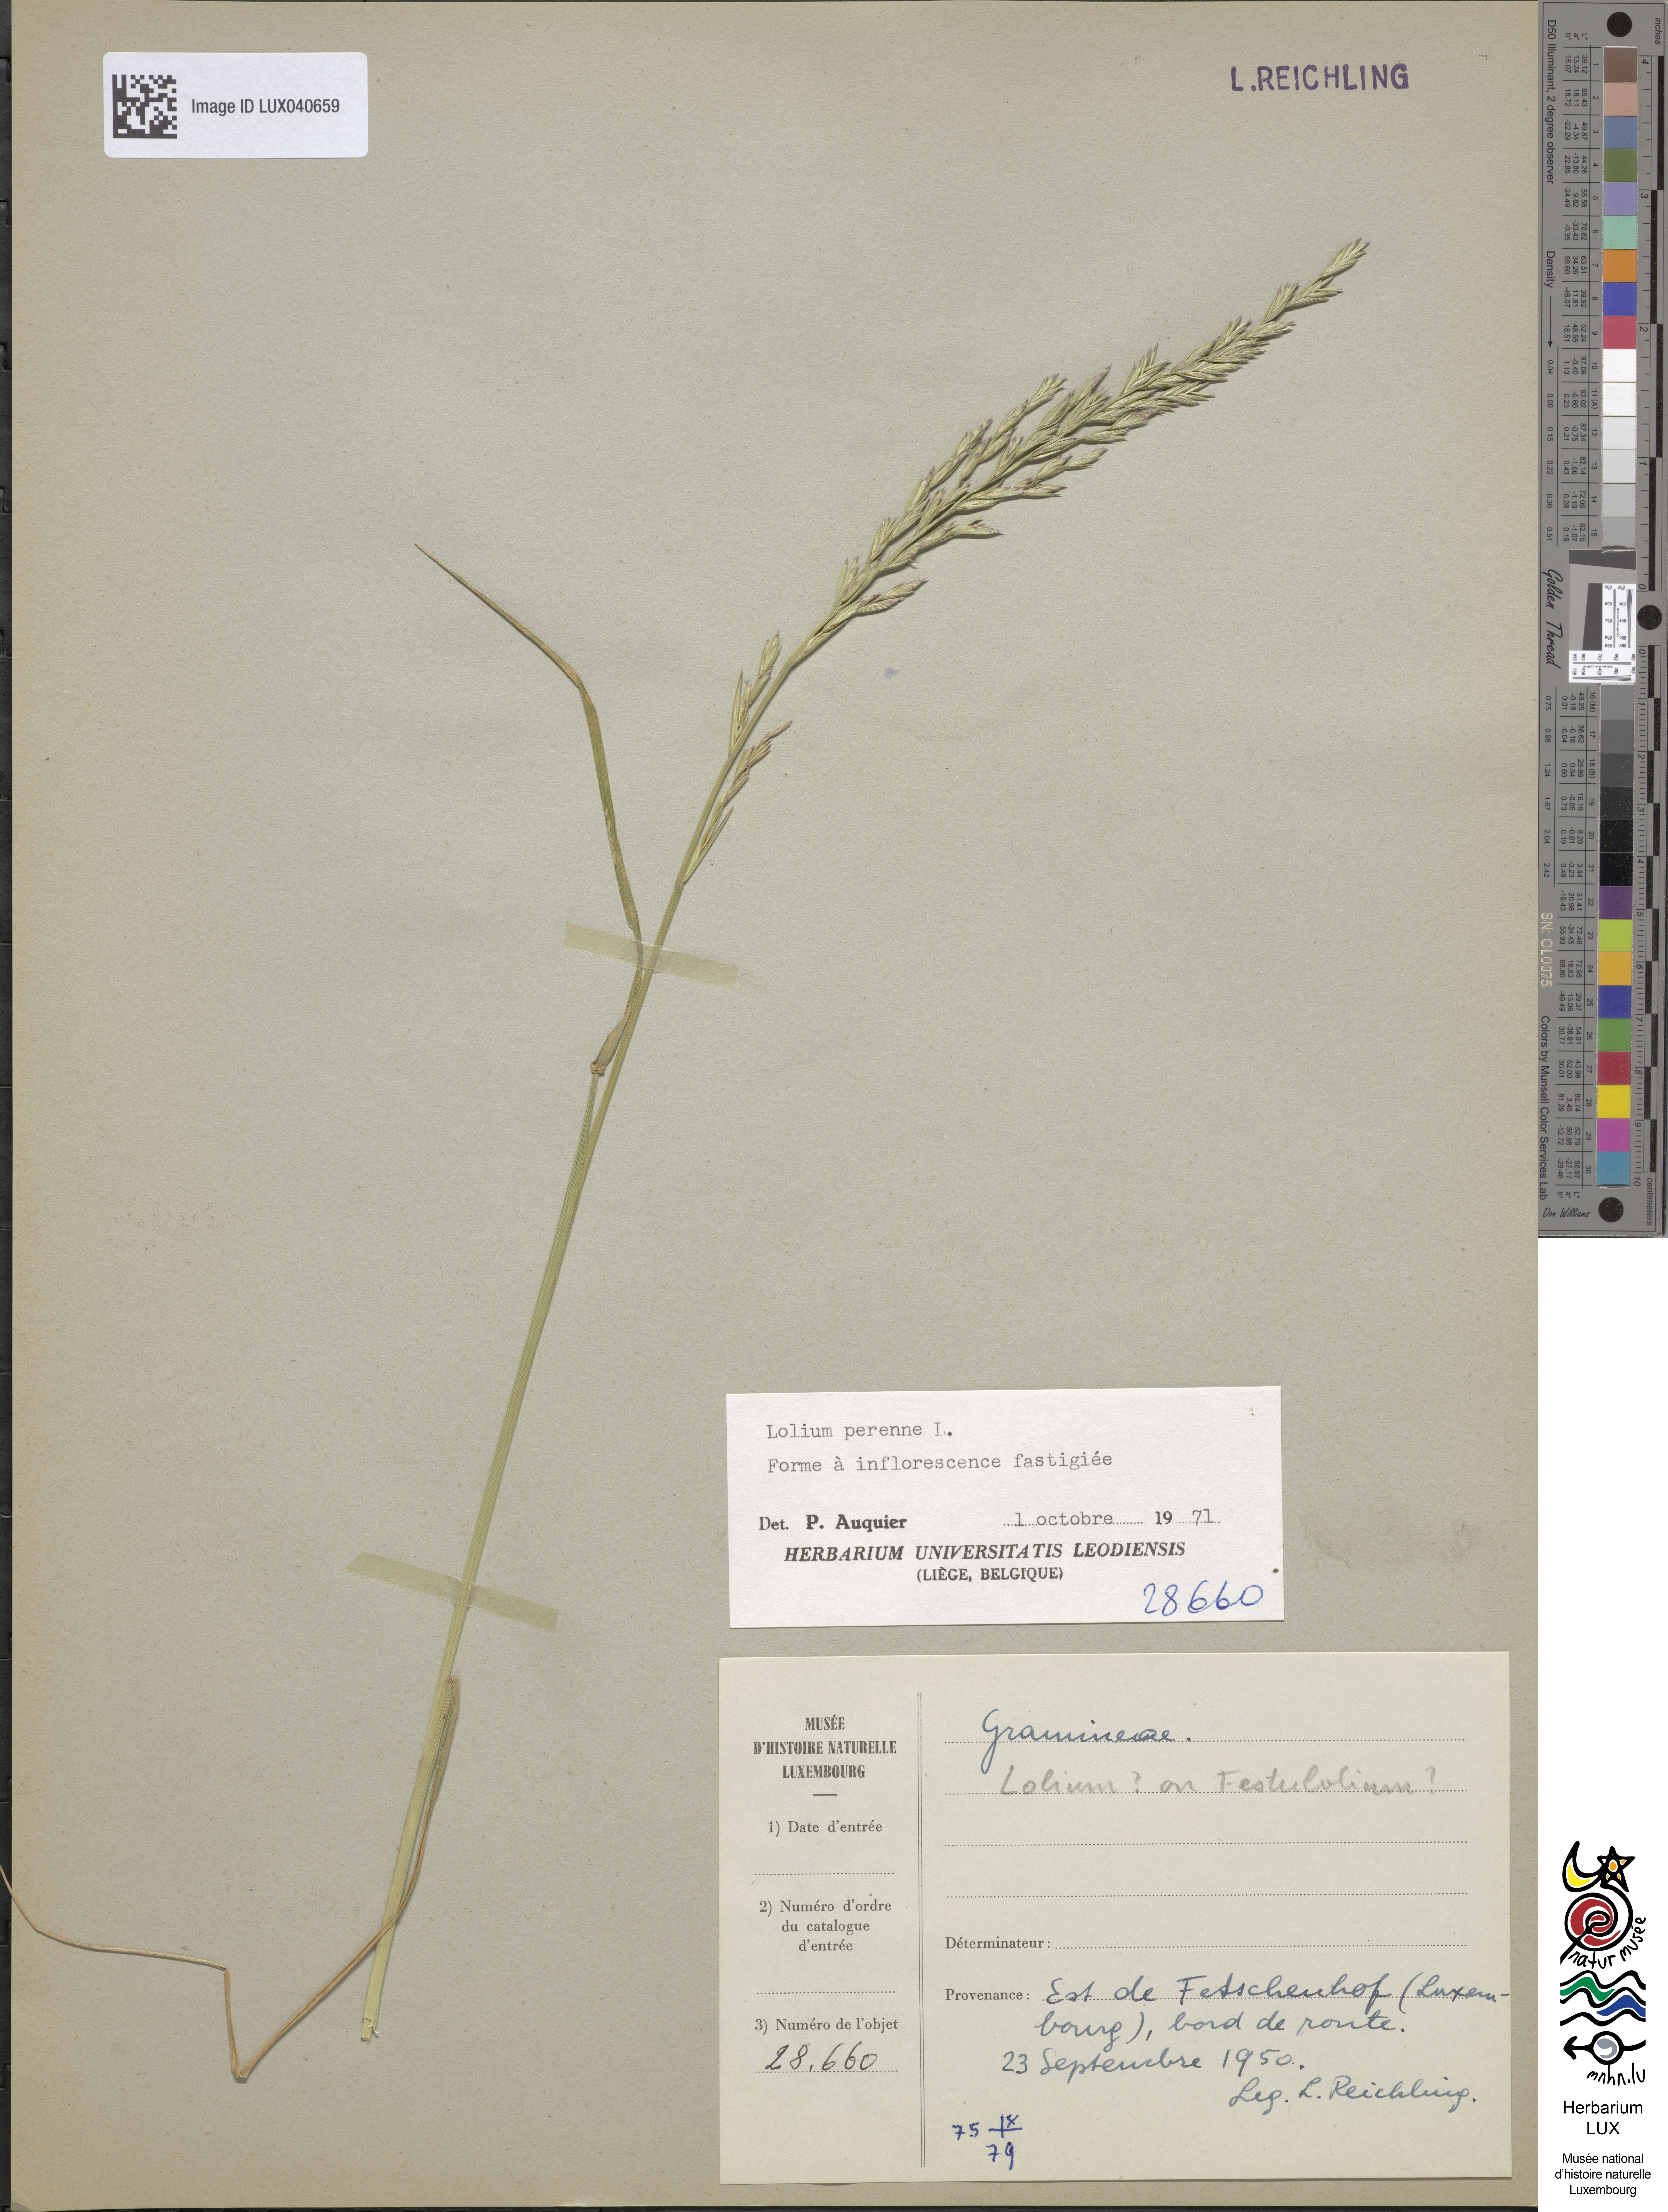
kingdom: Plantae
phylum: Tracheophyta
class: Liliopsida
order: Poales
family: Poaceae
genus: Lolium
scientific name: Lolium perenne
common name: Perennial ryegrass
